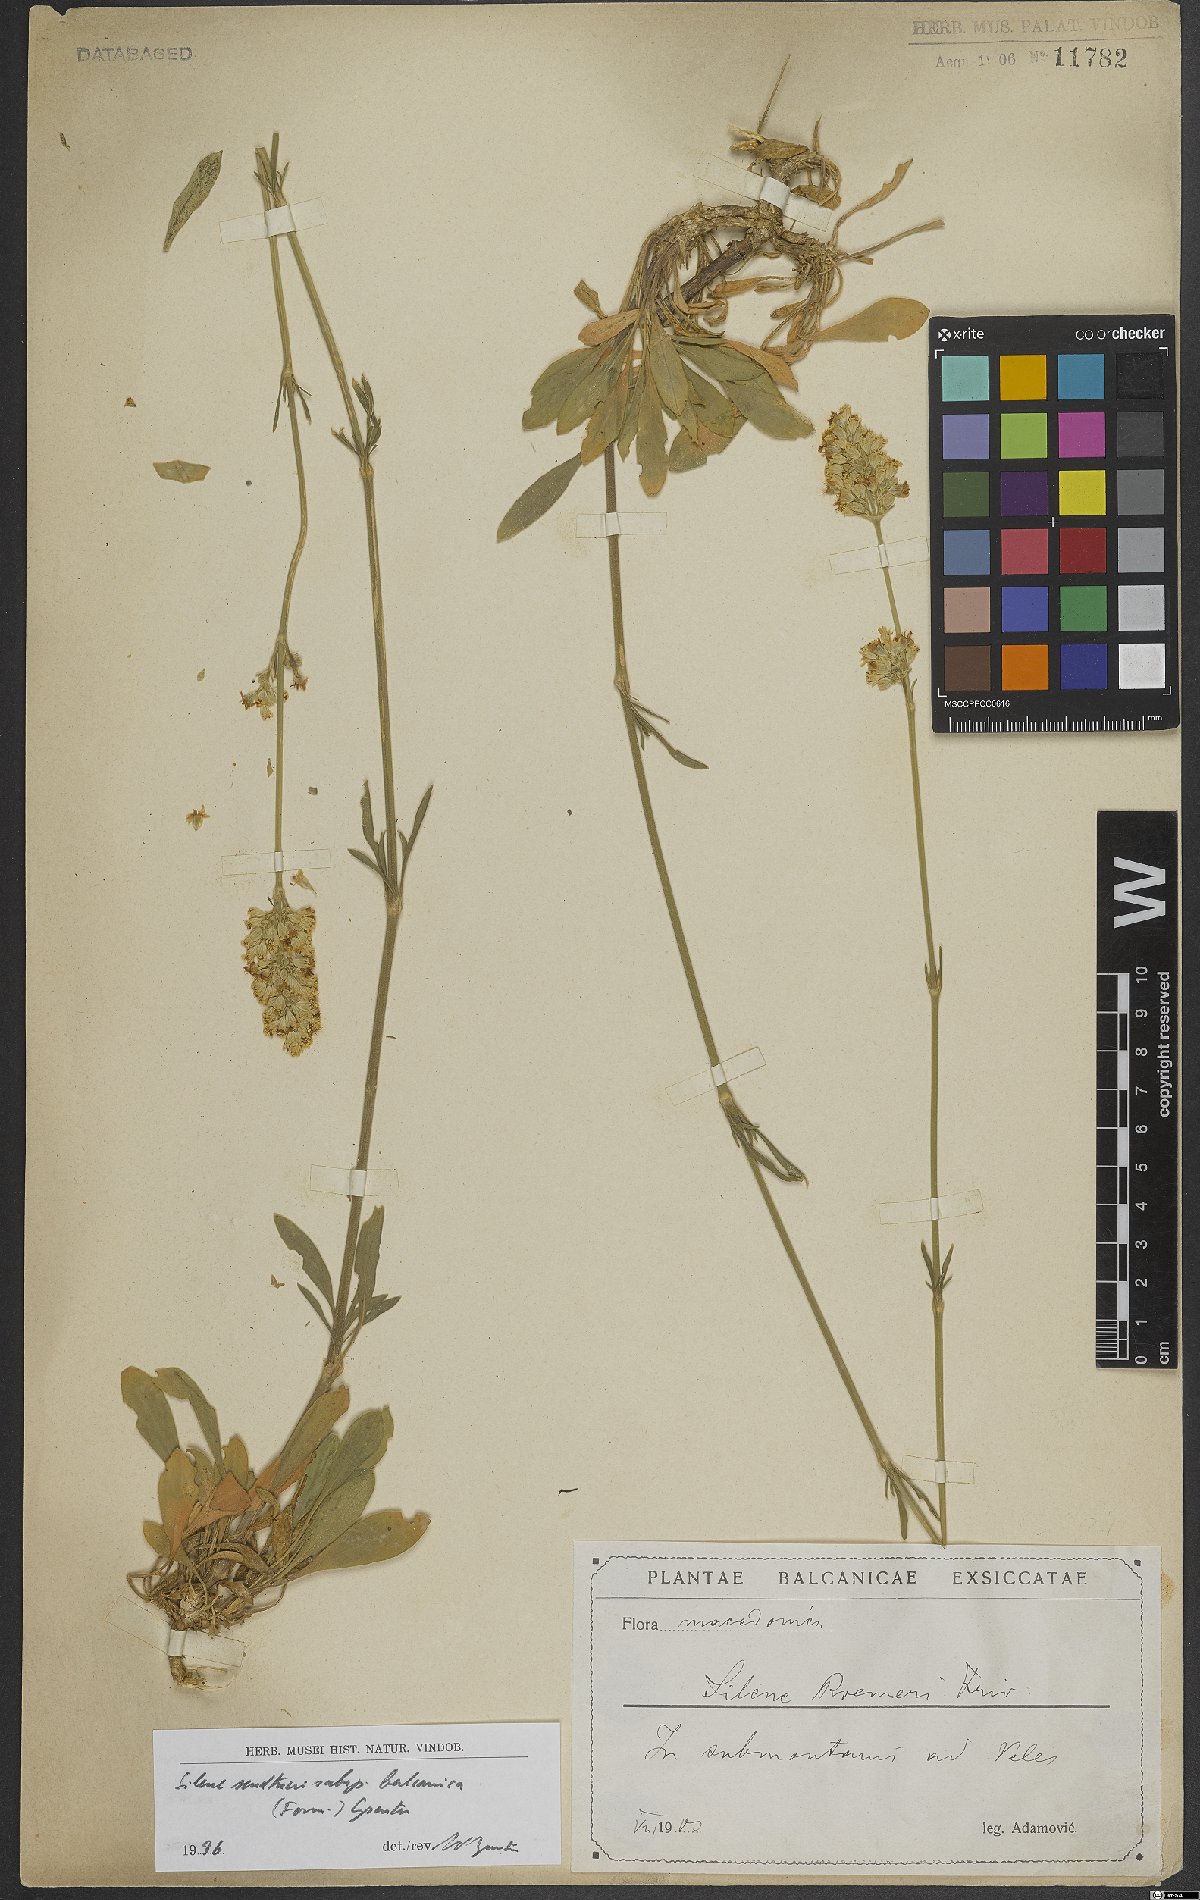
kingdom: Plantae
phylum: Tracheophyta
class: Magnoliopsida
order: Caryophyllales
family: Caryophyllaceae
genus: Silene
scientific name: Silene sendtneri
